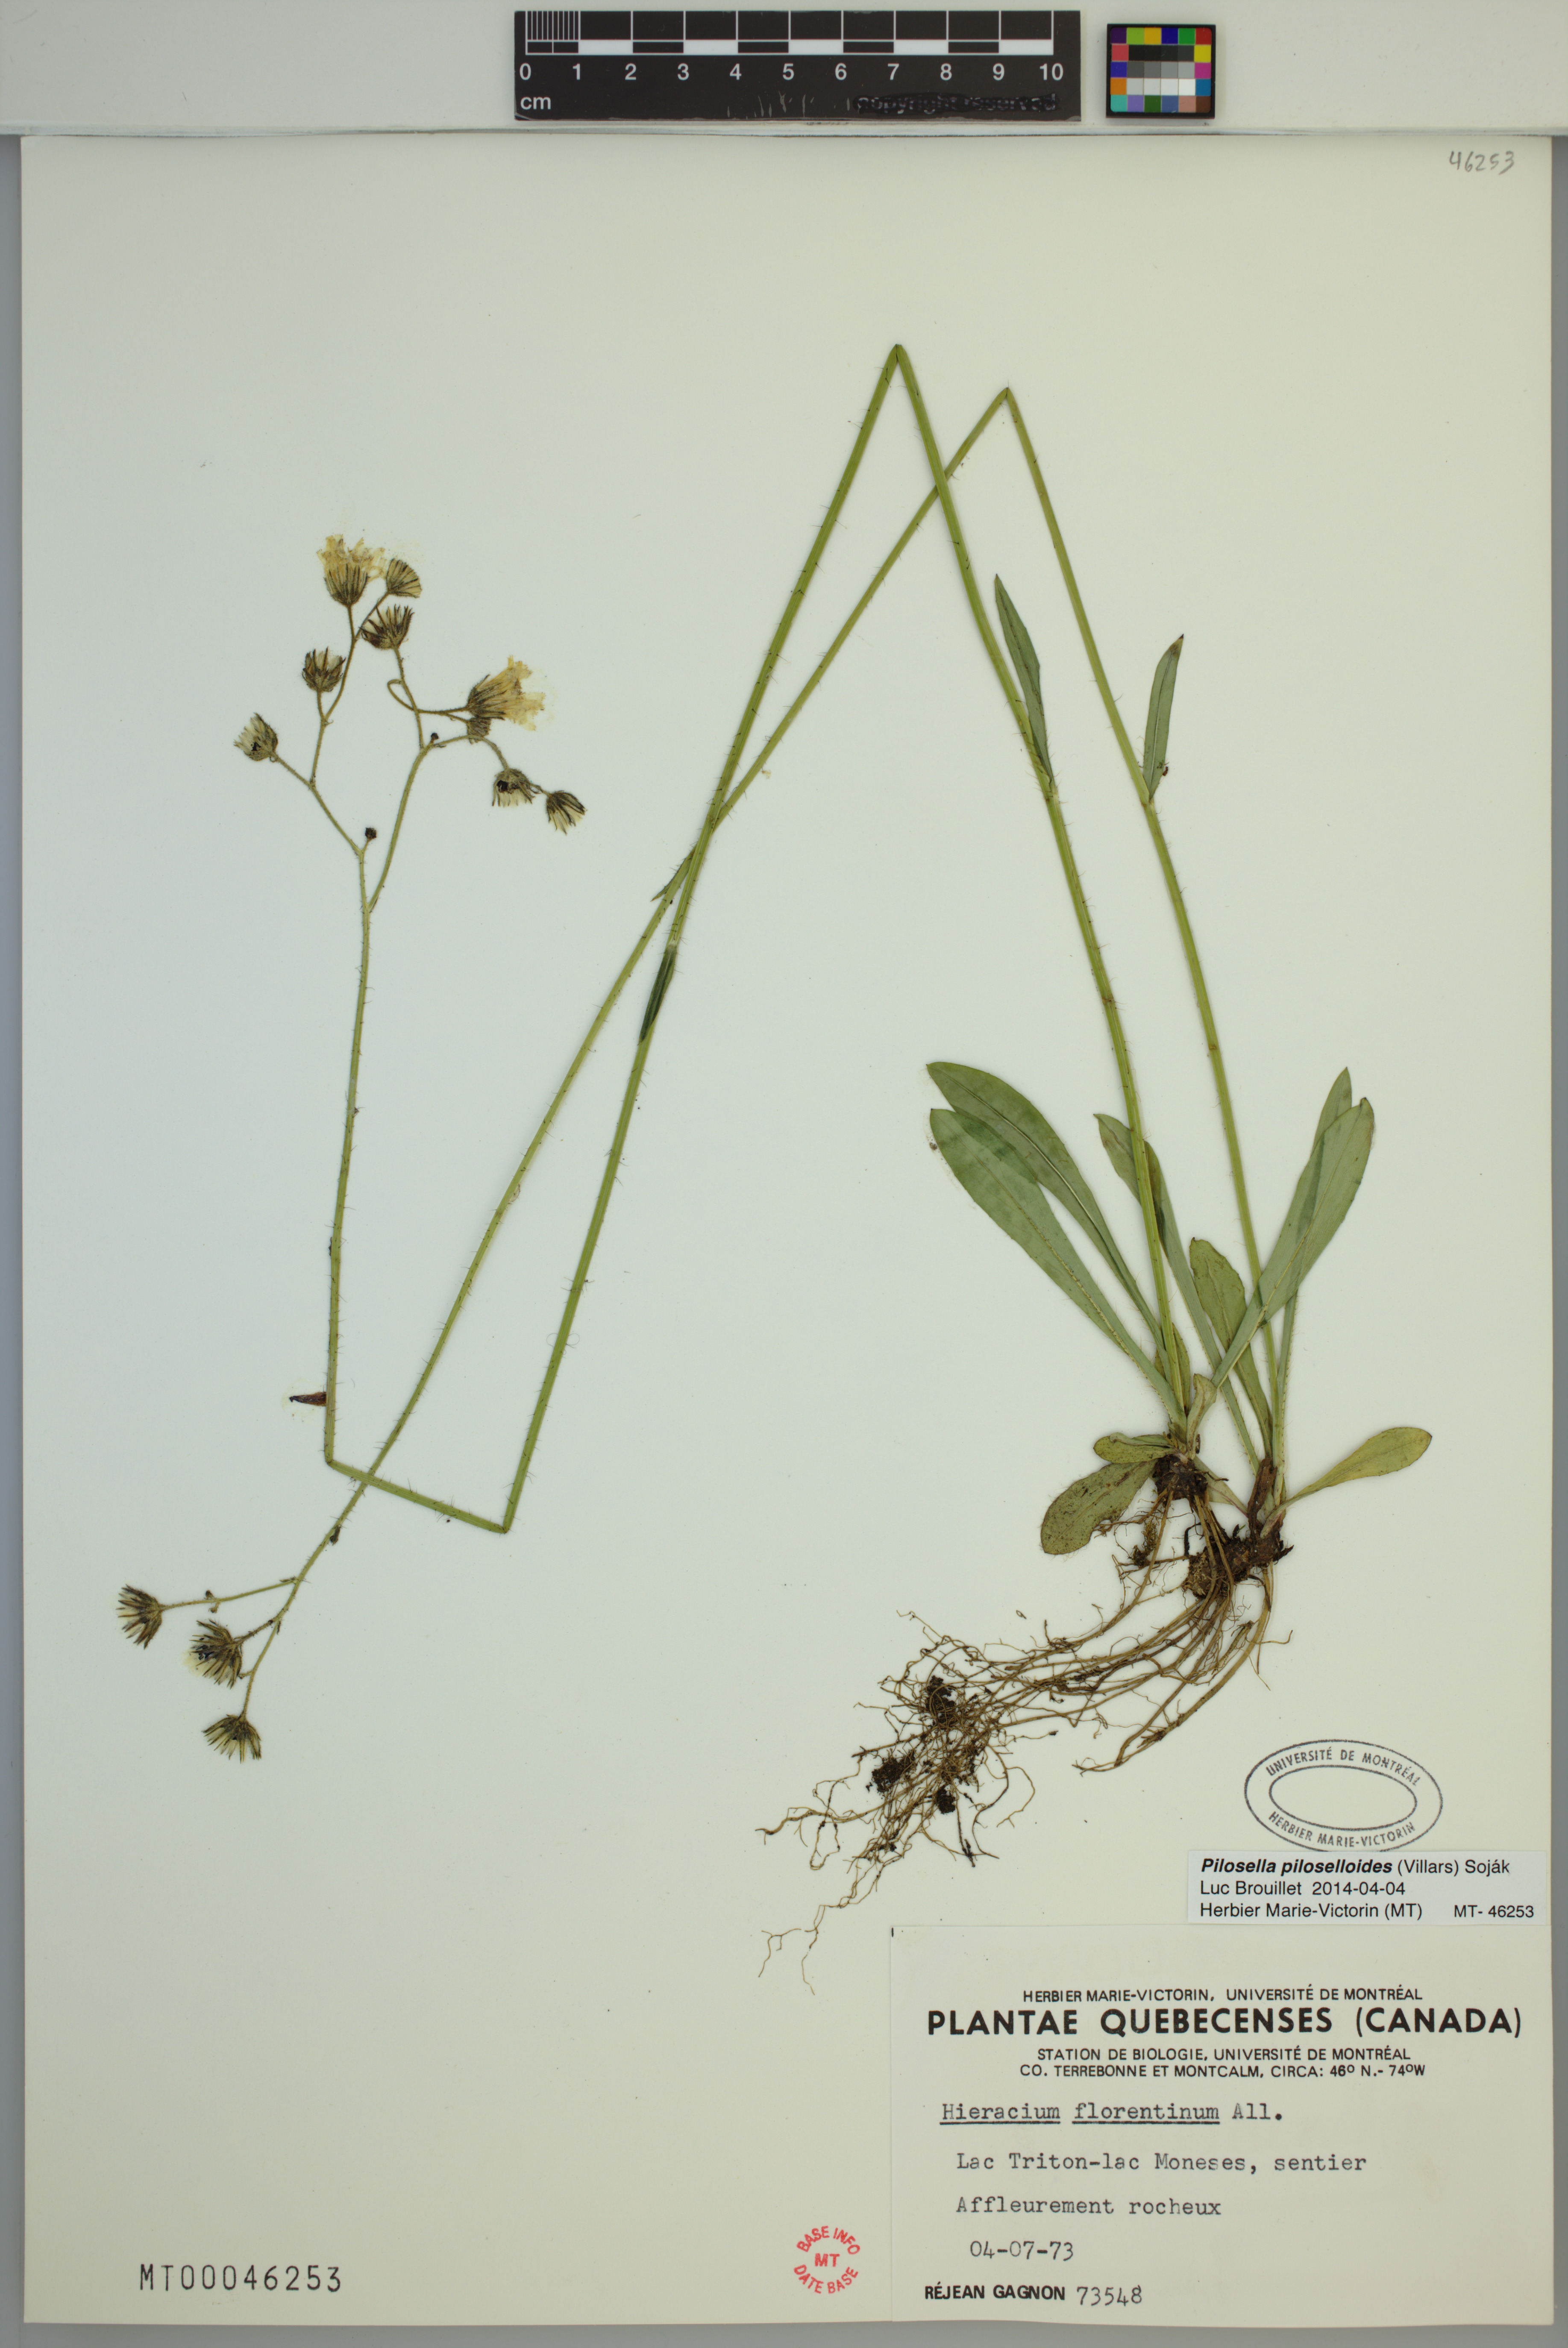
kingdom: Plantae
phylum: Tracheophyta
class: Magnoliopsida
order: Asterales
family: Asteraceae
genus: Pilosella
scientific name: Pilosella piloselloides
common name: Glaucous king-devil
